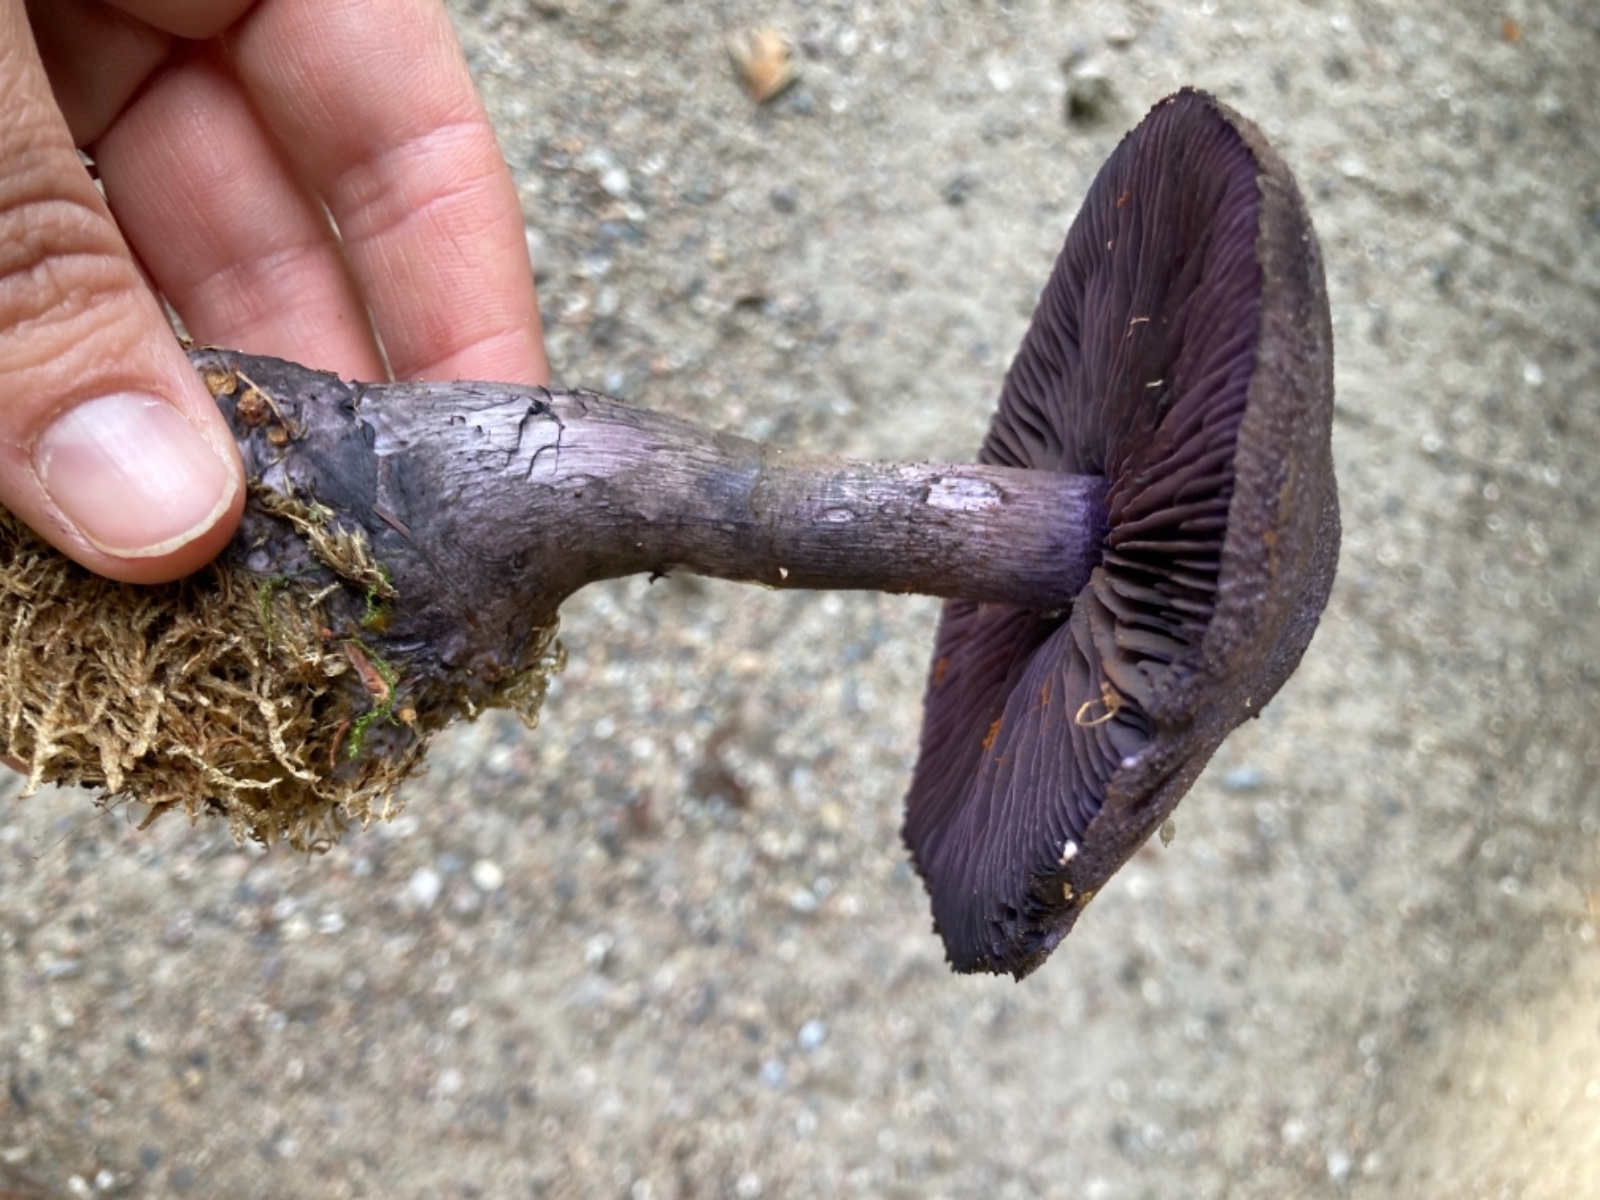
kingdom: Fungi
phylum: Basidiomycota
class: Agaricomycetes
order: Agaricales
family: Cortinariaceae
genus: Cortinarius
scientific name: Cortinarius violaceus
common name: mørkviolet slørhat
